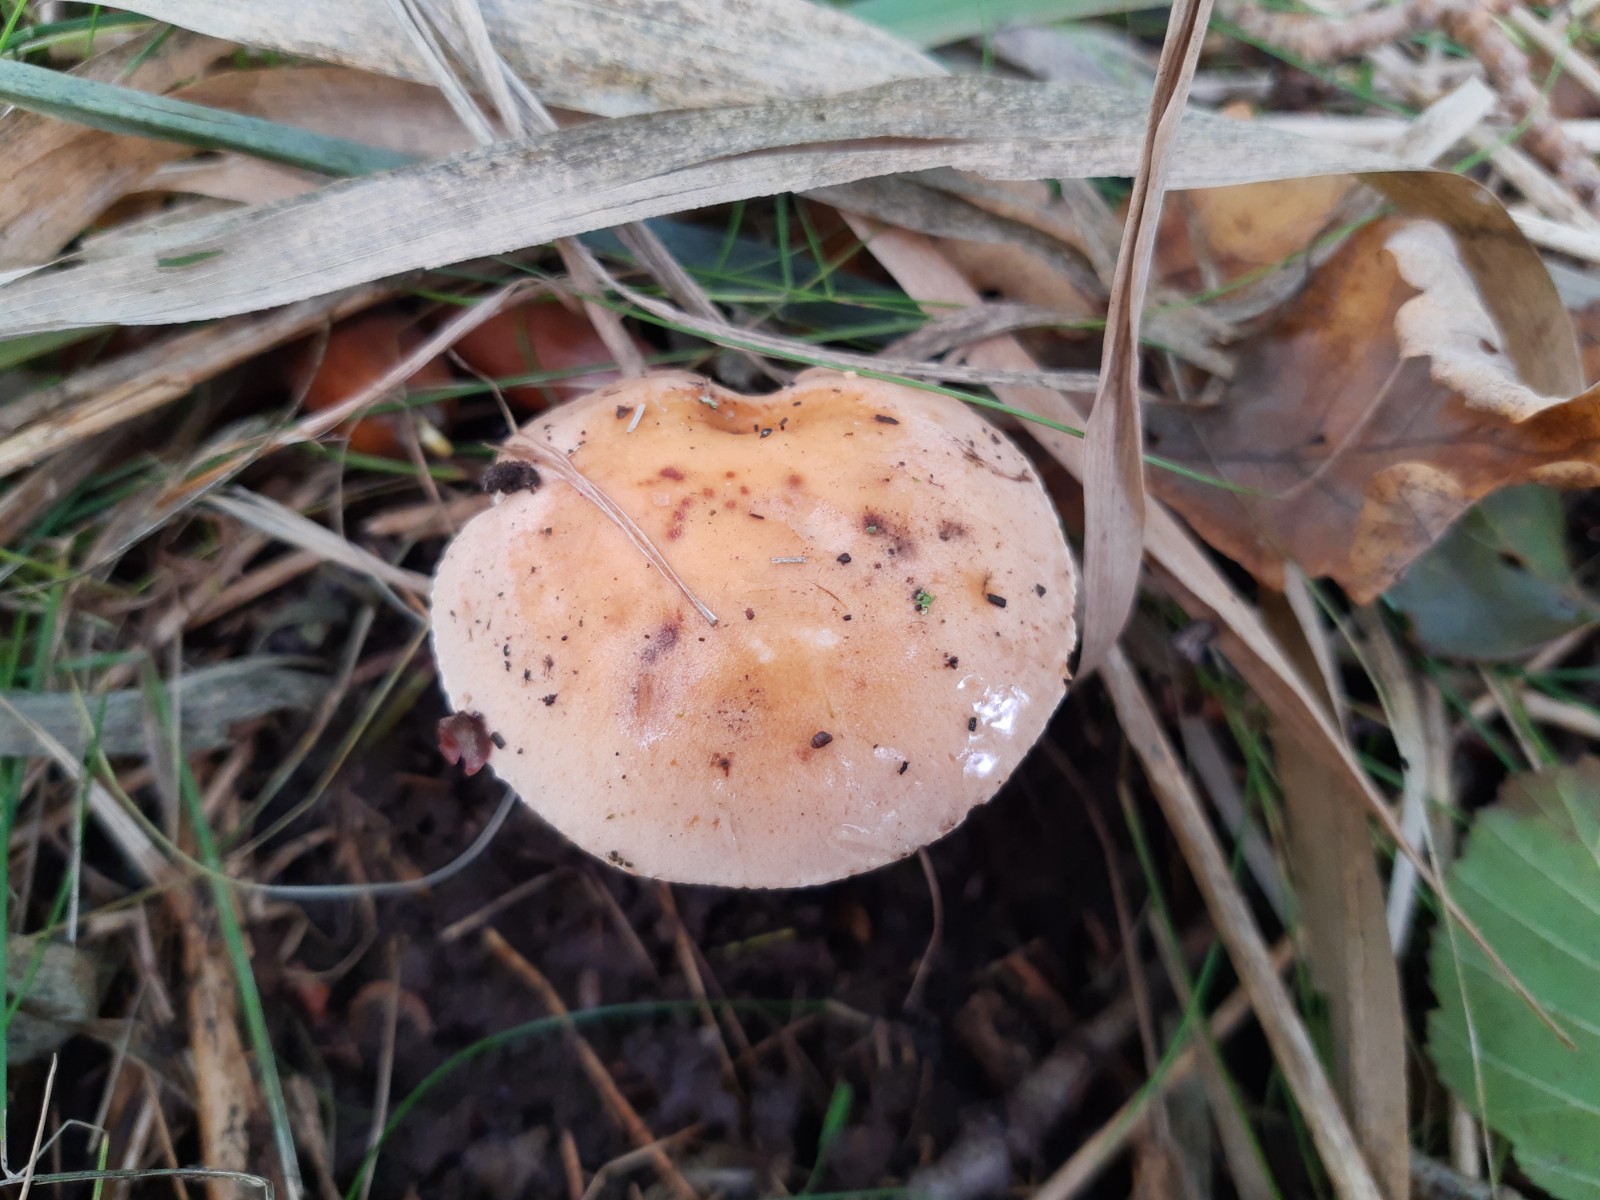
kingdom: Fungi
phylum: Basidiomycota
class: Agaricomycetes
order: Agaricales
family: Hymenogastraceae
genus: Hebeloma
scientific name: Hebeloma
